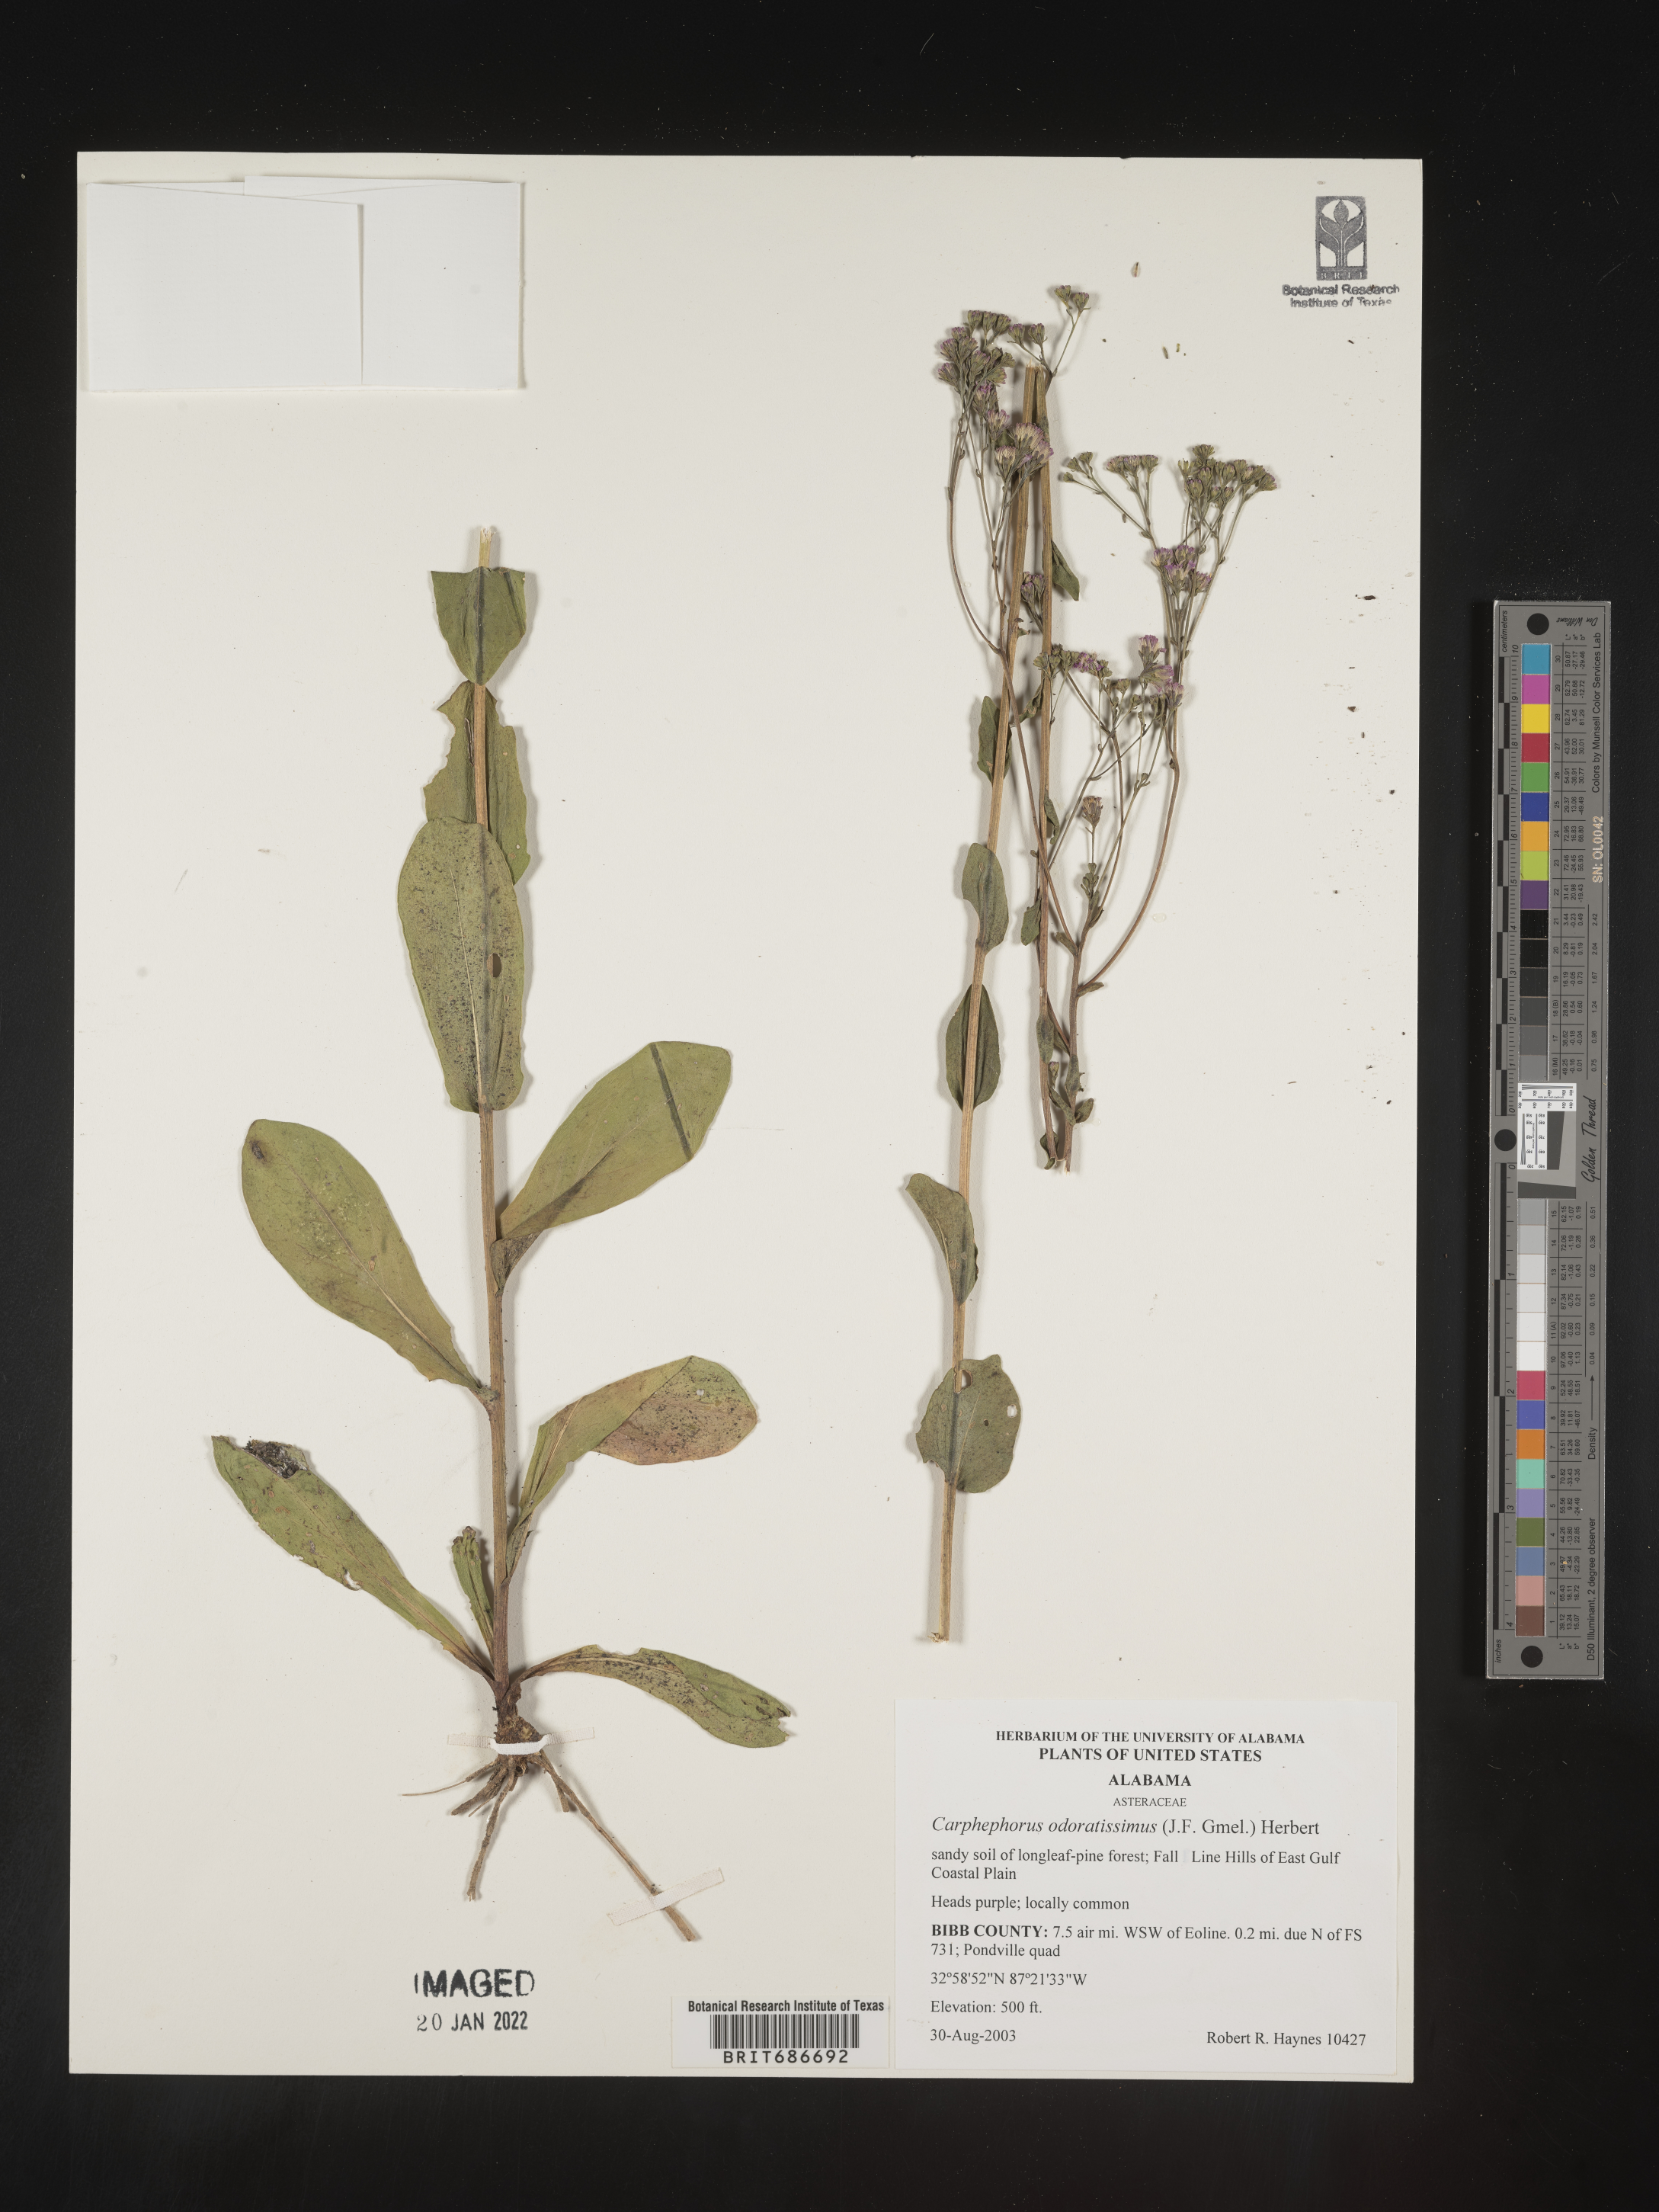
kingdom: Plantae
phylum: Tracheophyta
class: Magnoliopsida
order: Asterales
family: Asteraceae
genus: Carphephorus
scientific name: Carphephorus odoratissimus
